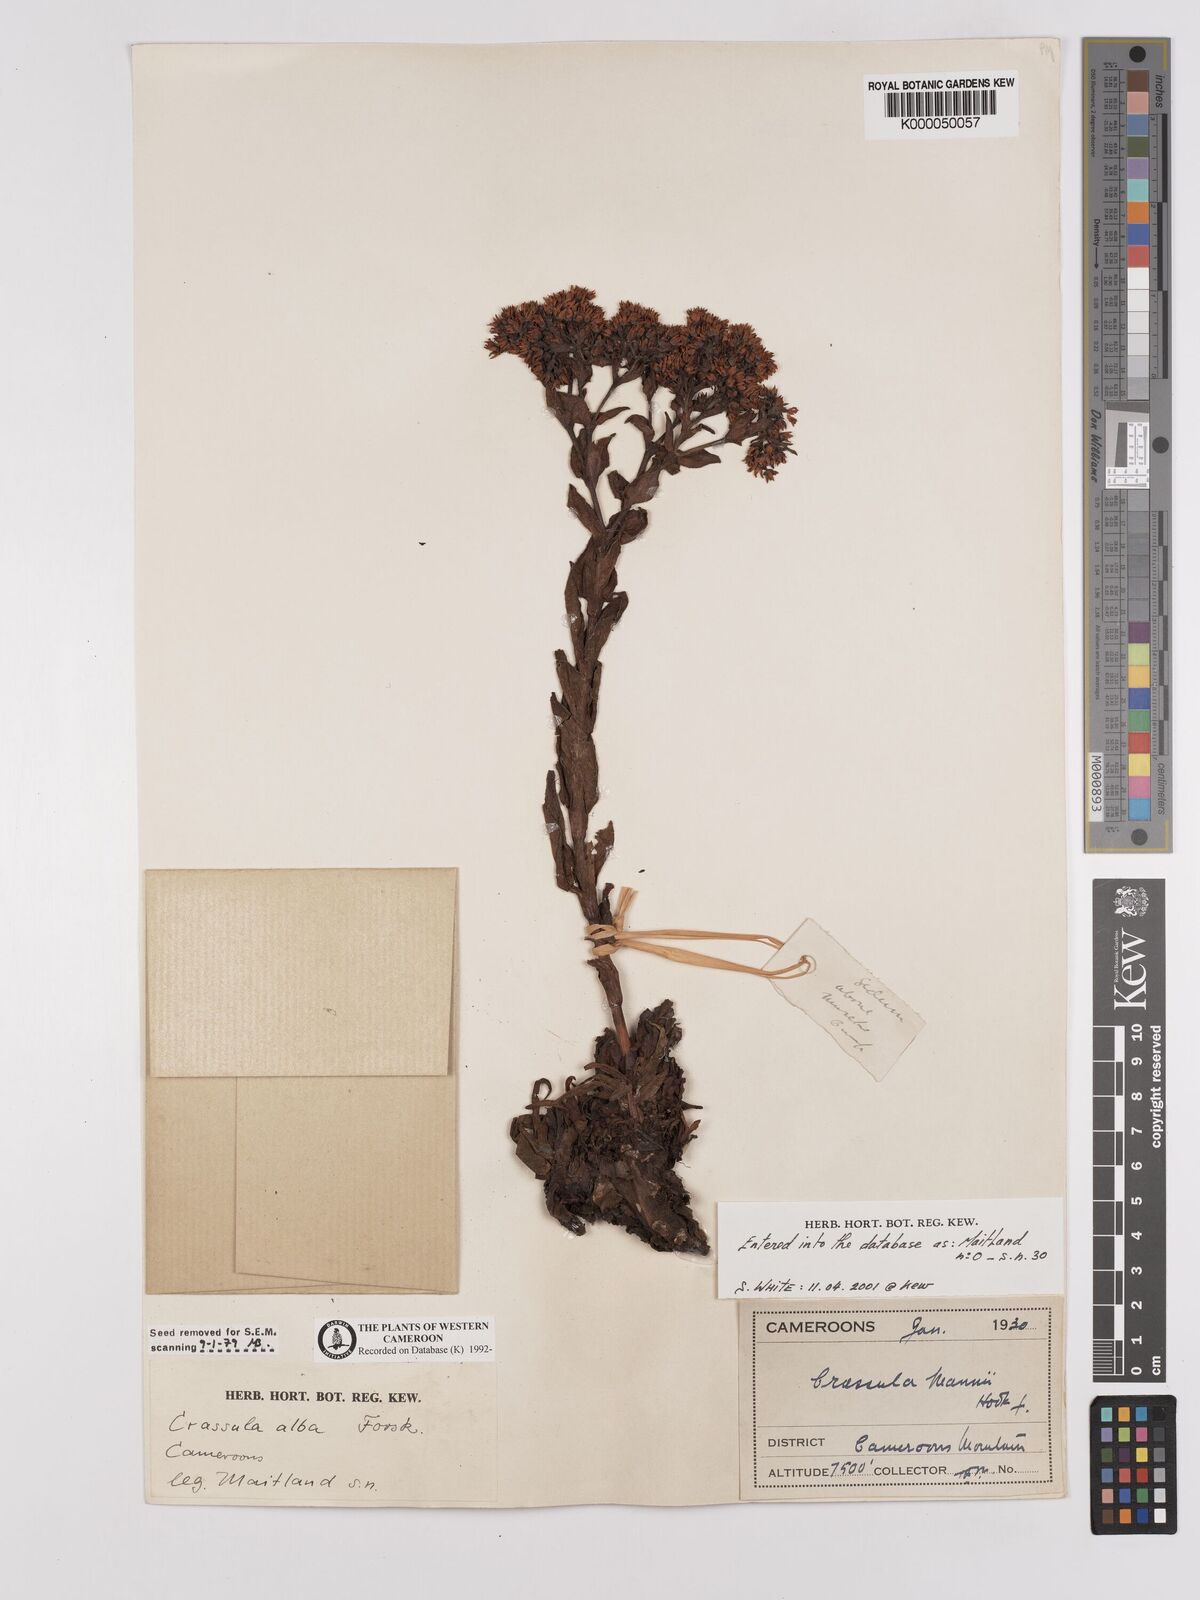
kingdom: Plantae
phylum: Tracheophyta
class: Magnoliopsida
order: Saxifragales
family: Crassulaceae
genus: Crassula
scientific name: Crassula vaginata
